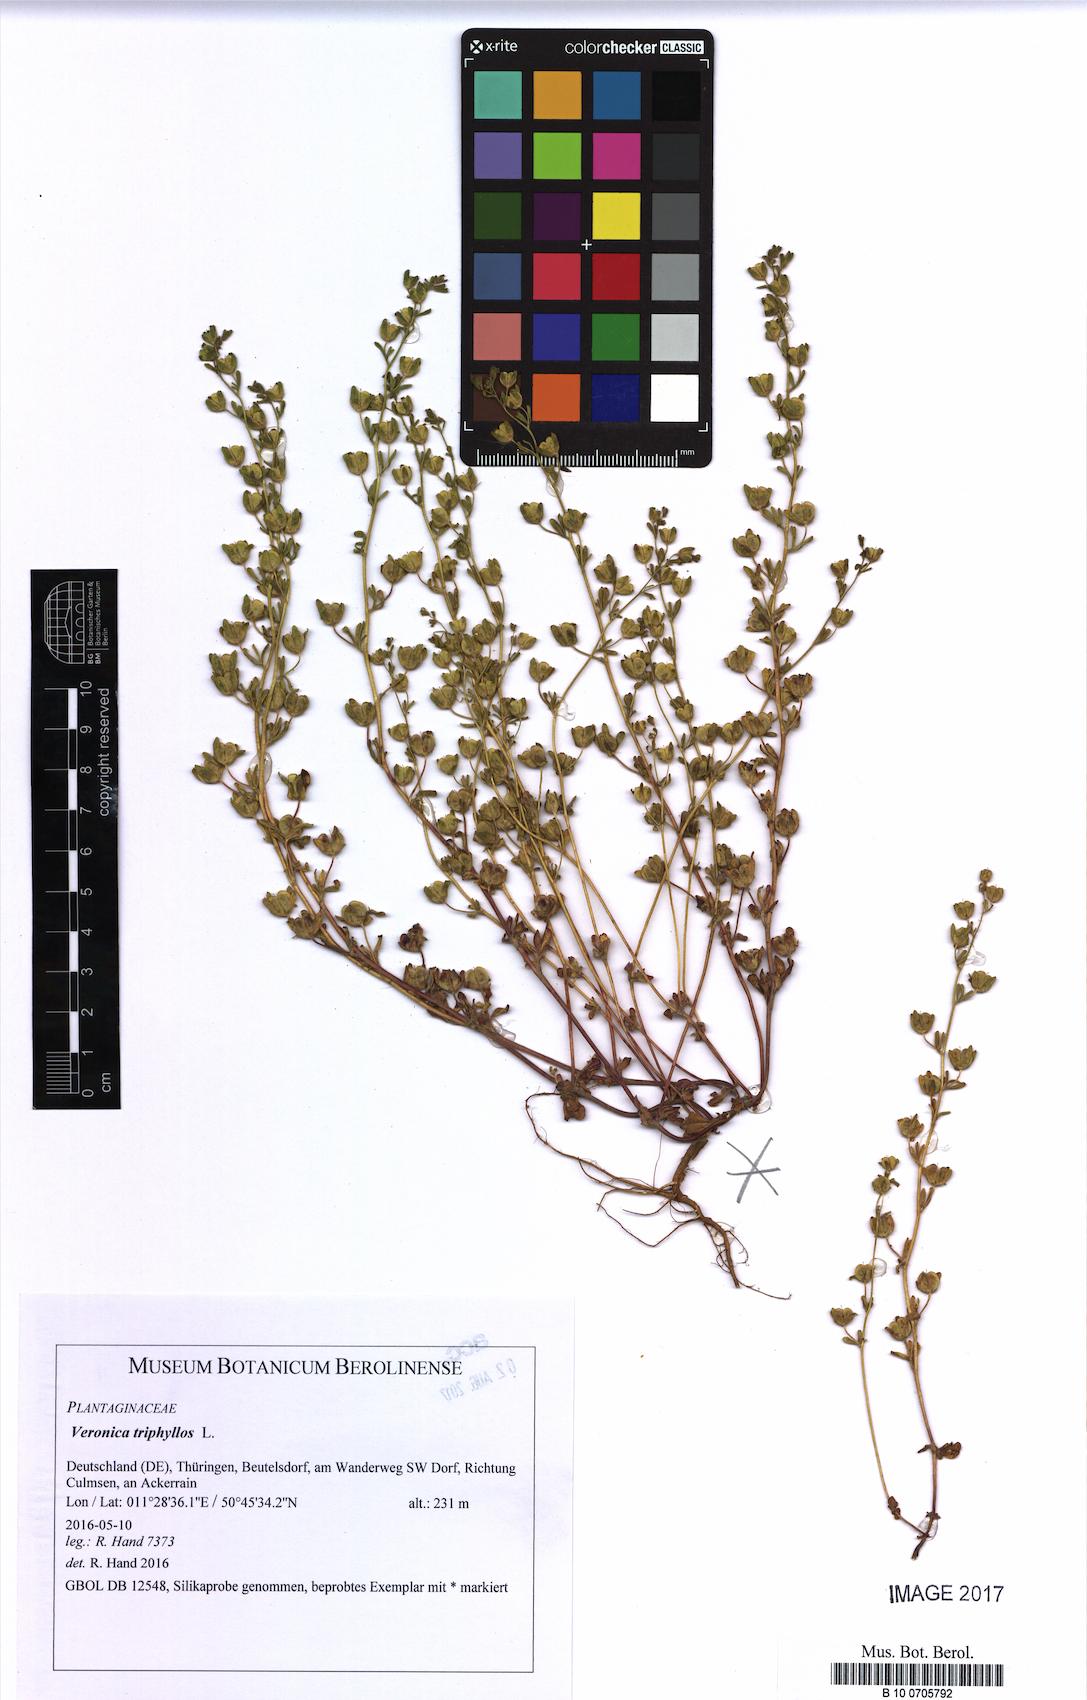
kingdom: Plantae
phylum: Tracheophyta
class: Magnoliopsida
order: Lamiales
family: Plantaginaceae
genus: Veronica
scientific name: Veronica triphyllos
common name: Fingered speedwell
